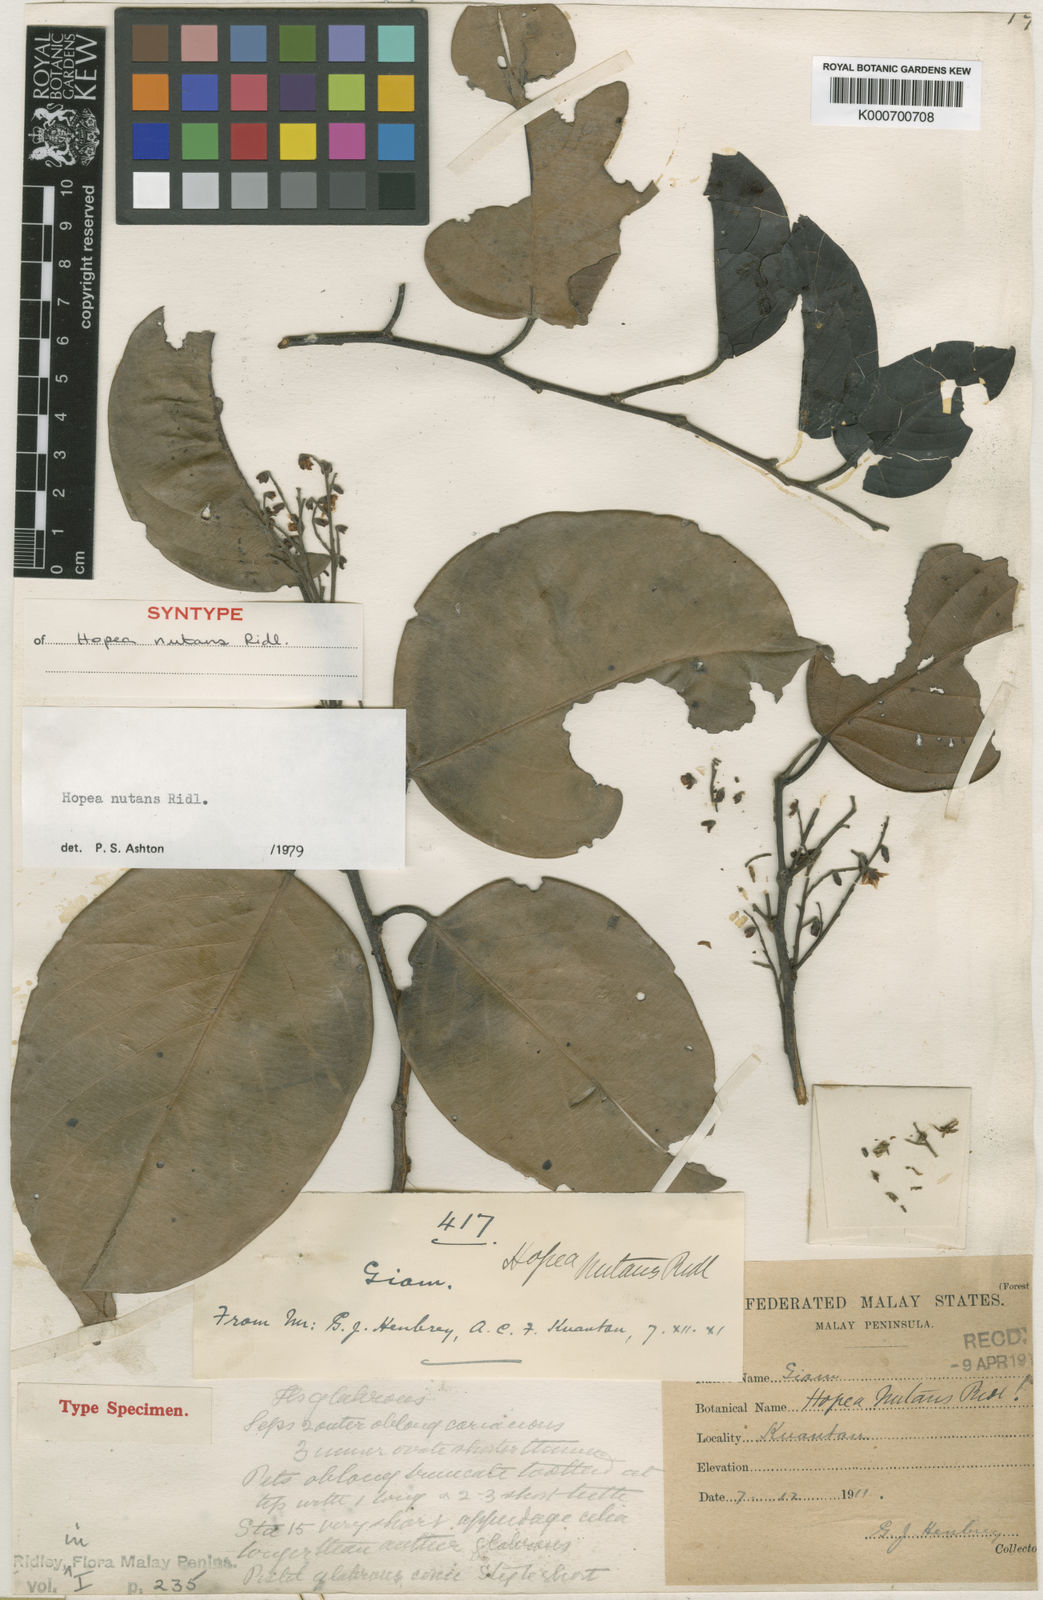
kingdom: Plantae
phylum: Tracheophyta
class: Magnoliopsida
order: Malvales
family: Dipterocarpaceae
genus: Hopea
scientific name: Hopea nutans
